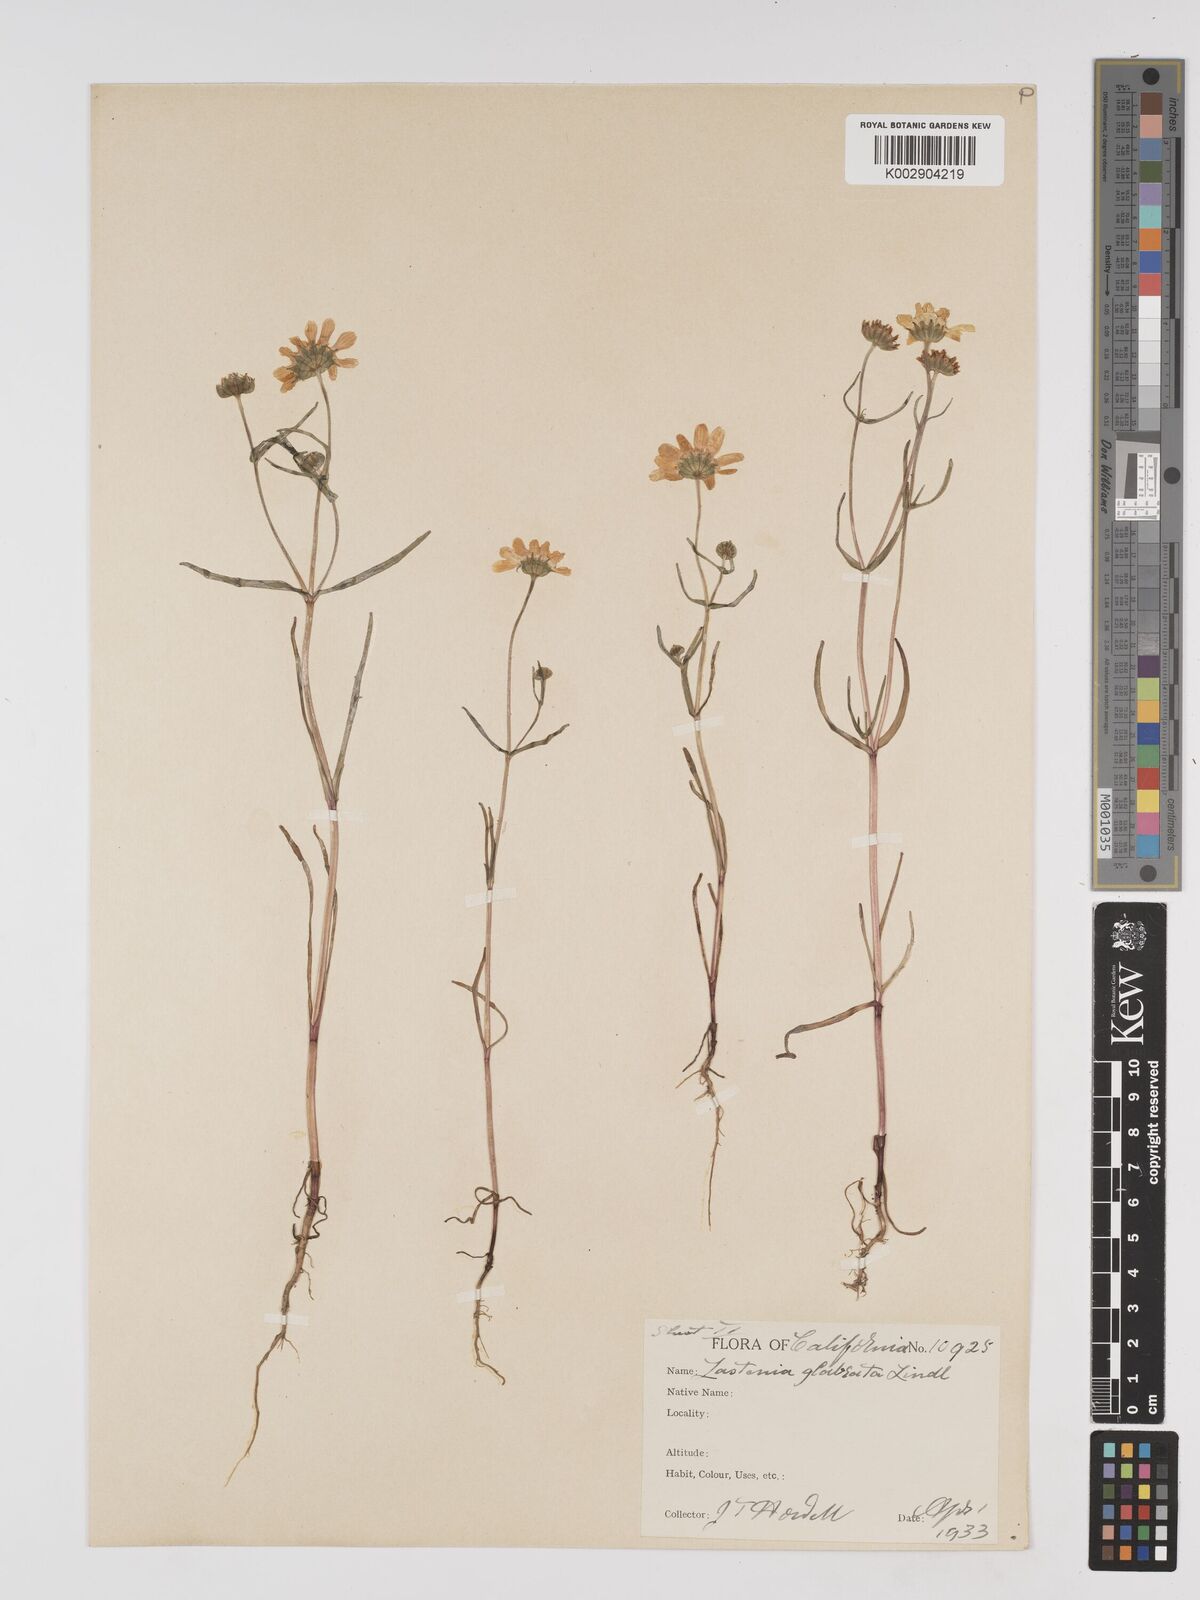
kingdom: Plantae
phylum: Tracheophyta
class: Magnoliopsida
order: Asterales
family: Asteraceae
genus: Lasthenia
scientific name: Lasthenia glabrata
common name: Yellow-ray lasthenia
